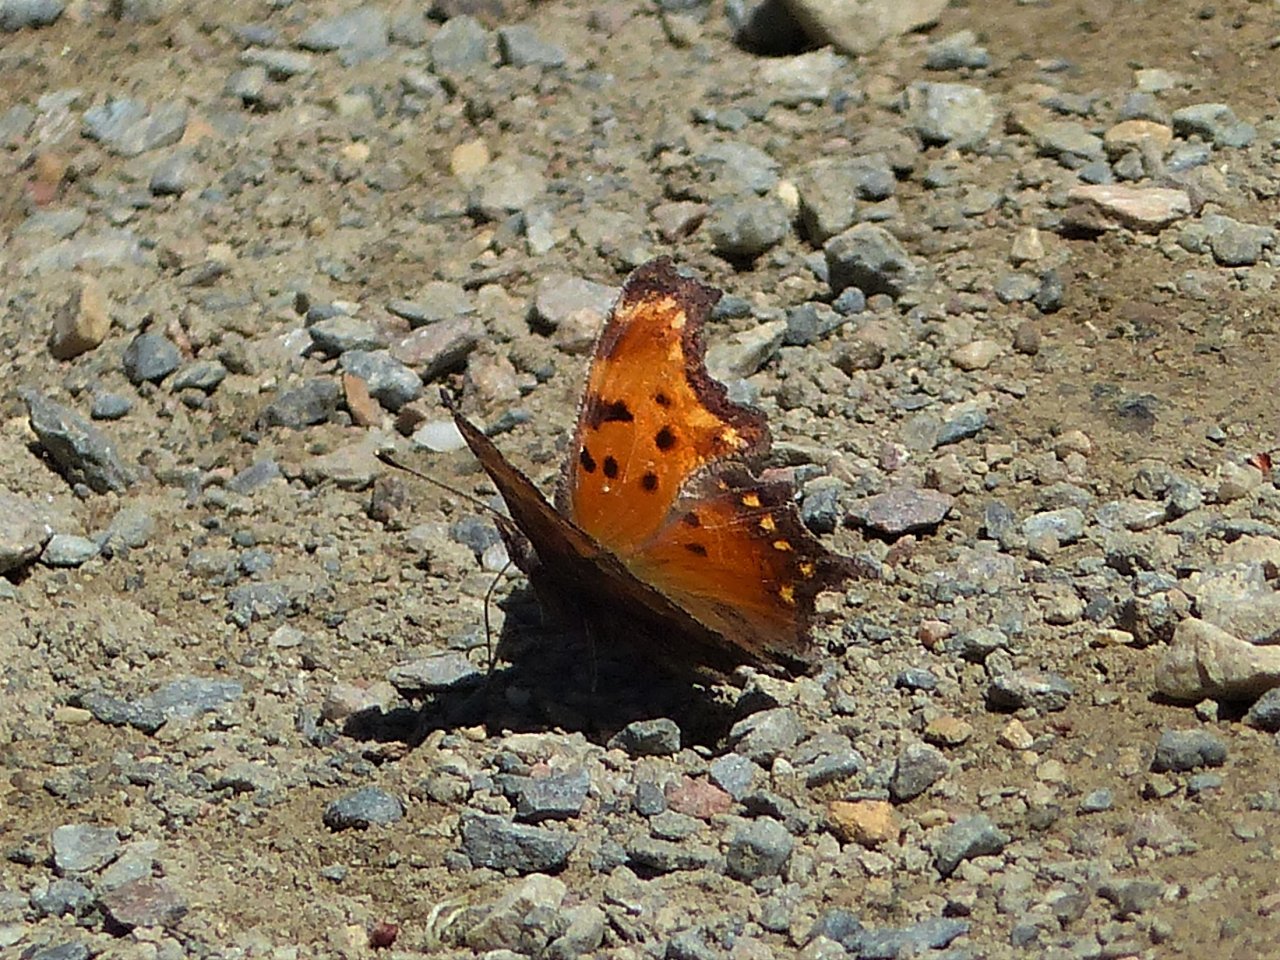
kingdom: Animalia
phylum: Arthropoda
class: Insecta
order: Lepidoptera
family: Nymphalidae
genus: Polygonia
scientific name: Polygonia progne
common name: Gray Comma
